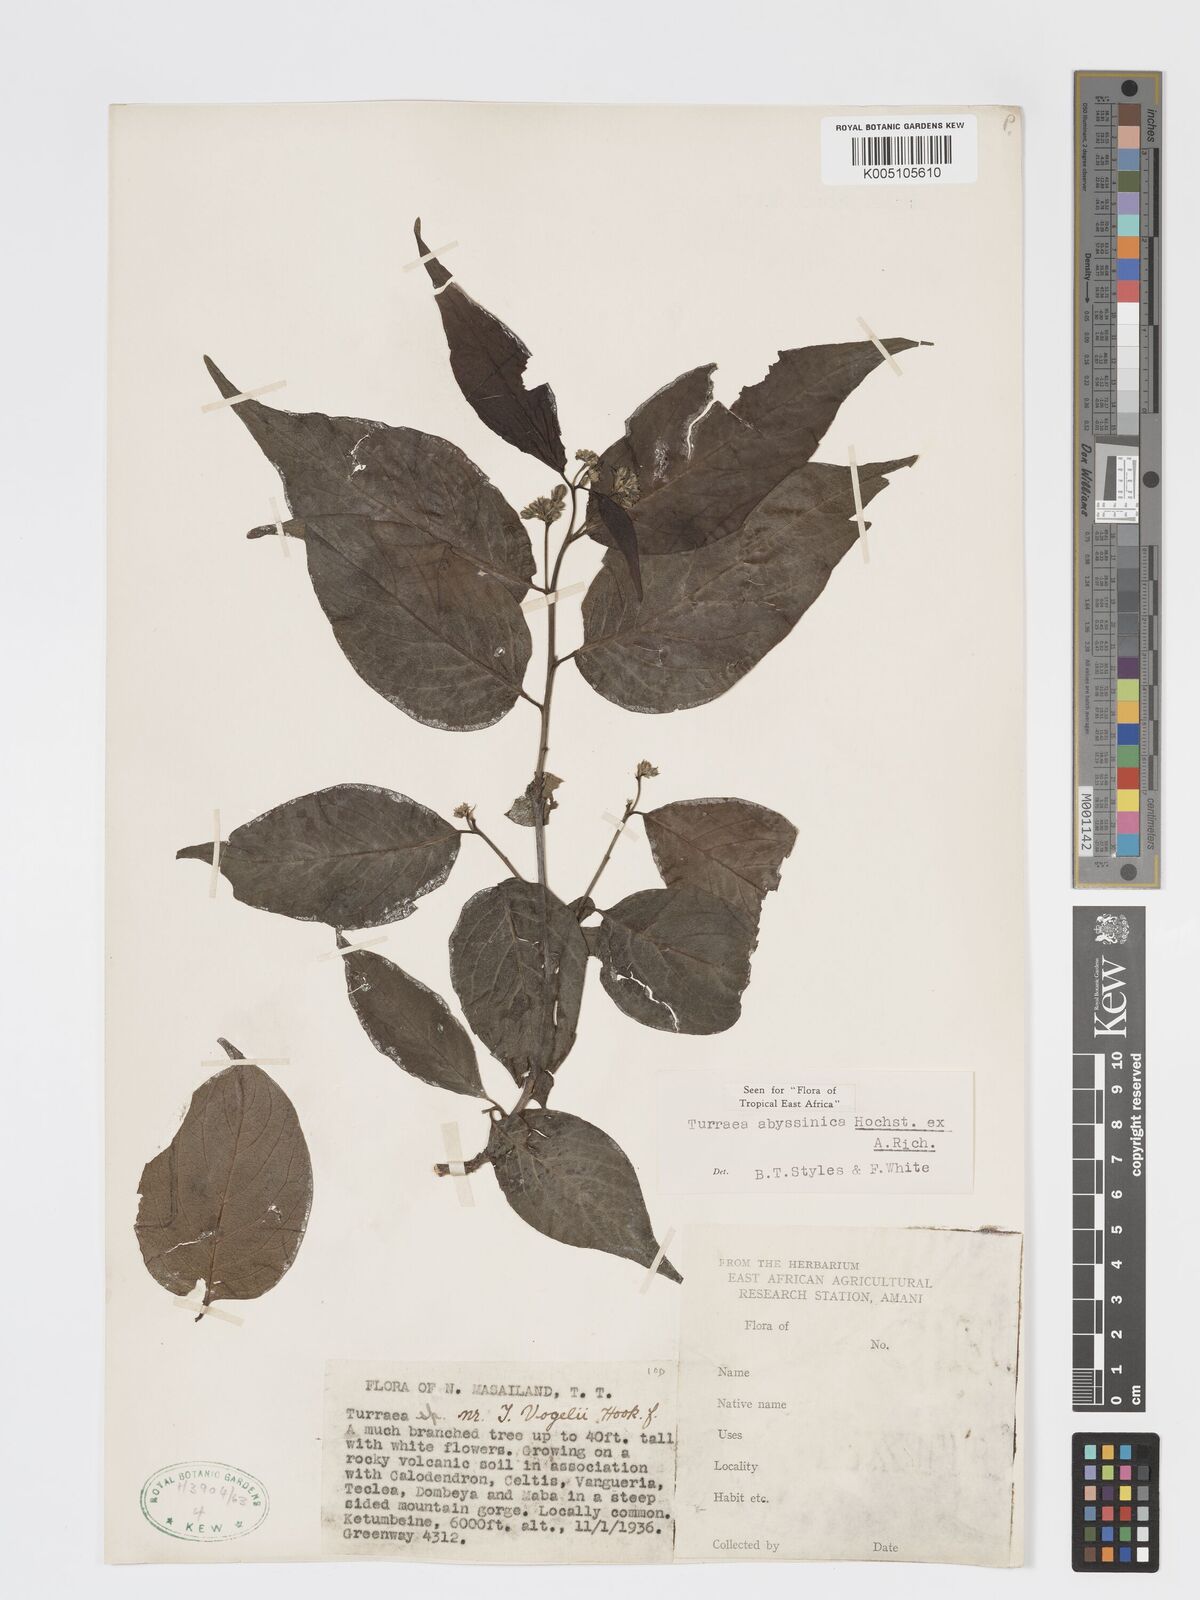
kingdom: Plantae
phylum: Tracheophyta
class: Magnoliopsida
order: Sapindales
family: Meliaceae
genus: Turraea
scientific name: Turraea abyssinica
